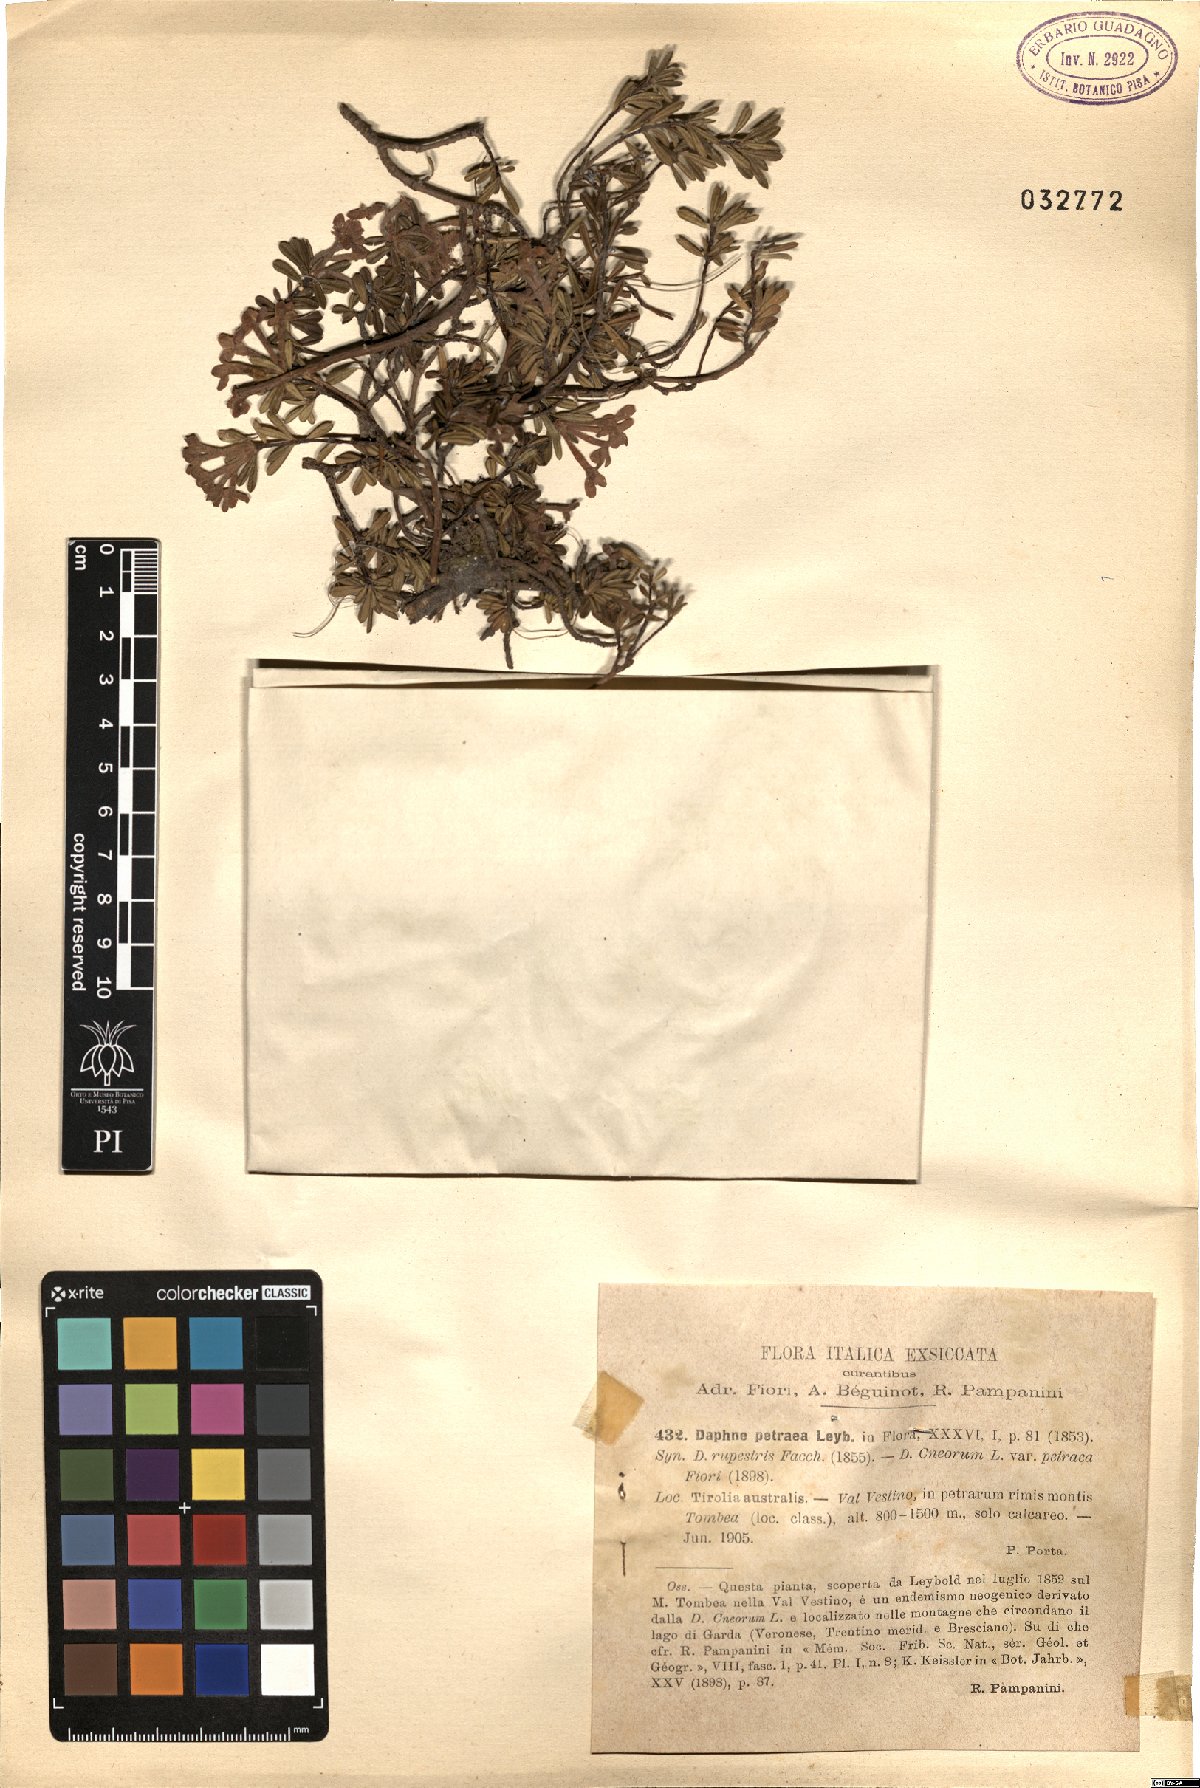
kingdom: Plantae
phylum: Tracheophyta
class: Magnoliopsida
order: Malvales
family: Thymelaeaceae
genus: Daphne
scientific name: Daphne petraea
